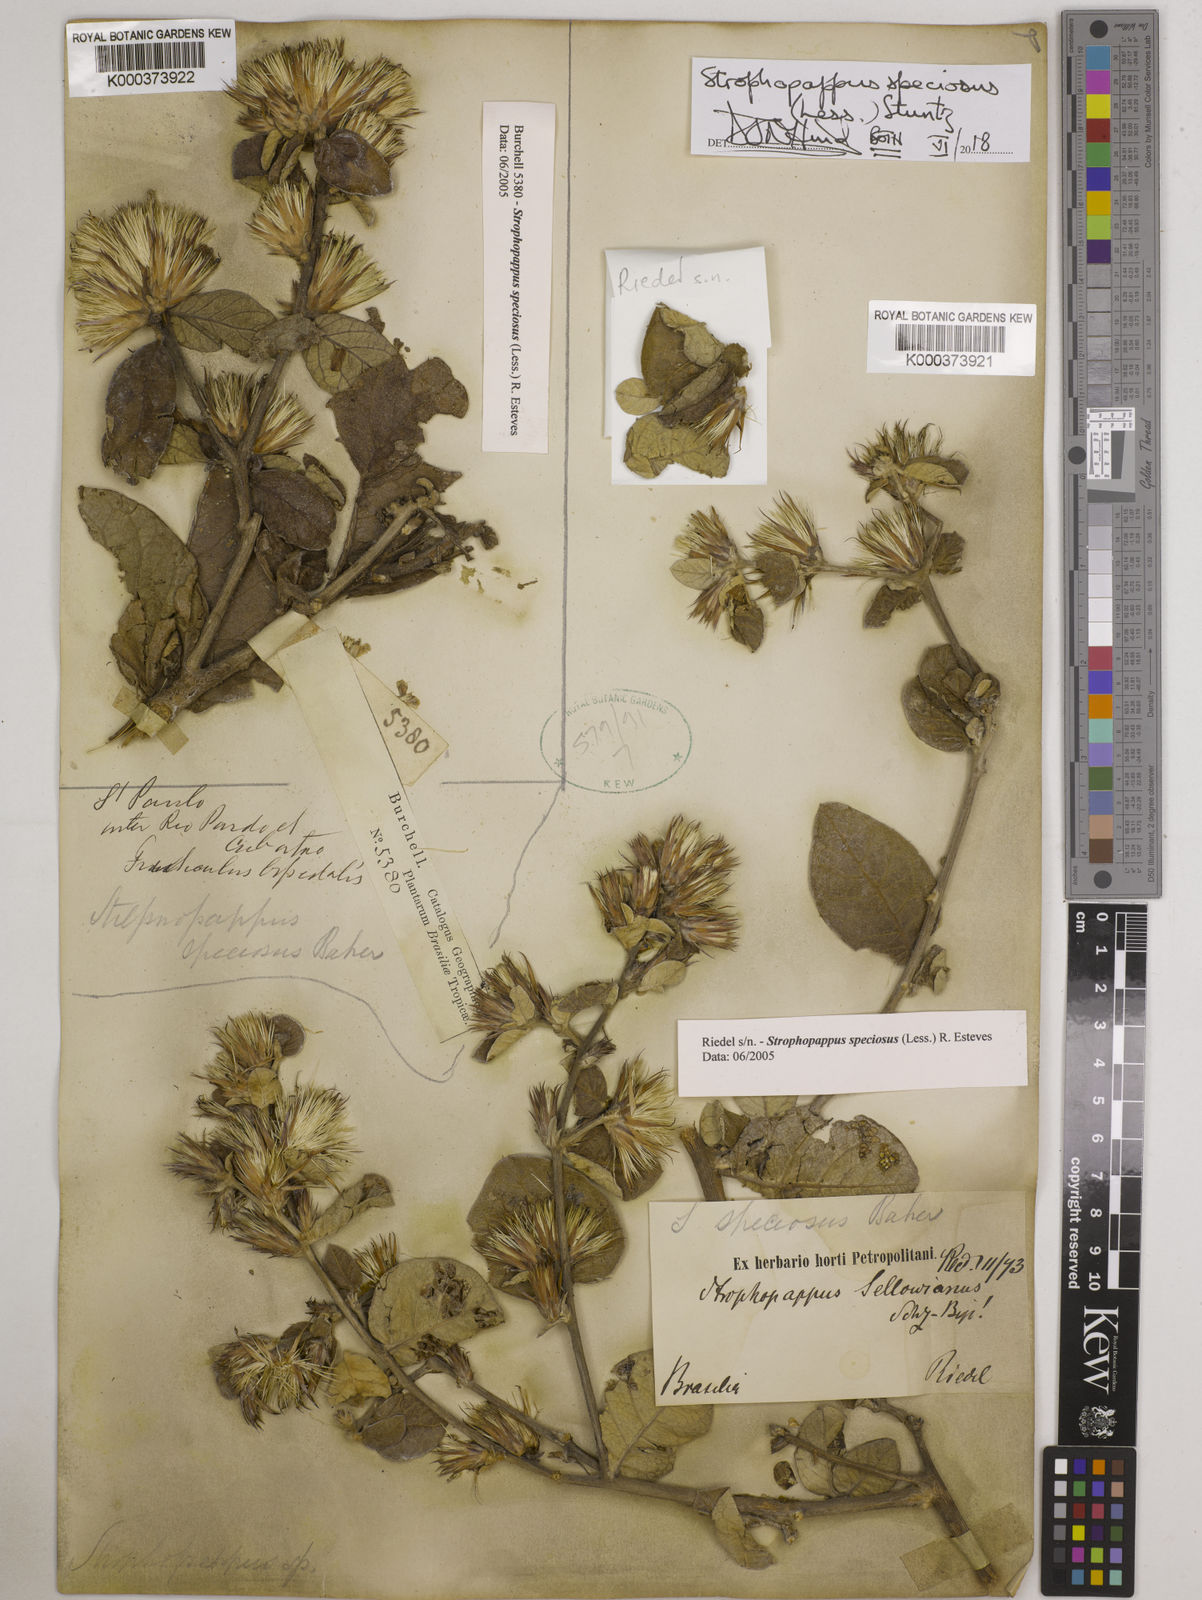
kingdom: Plantae
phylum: Tracheophyta
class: Magnoliopsida
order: Asterales
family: Asteraceae
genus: Stilpnopappus
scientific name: Stilpnopappus
